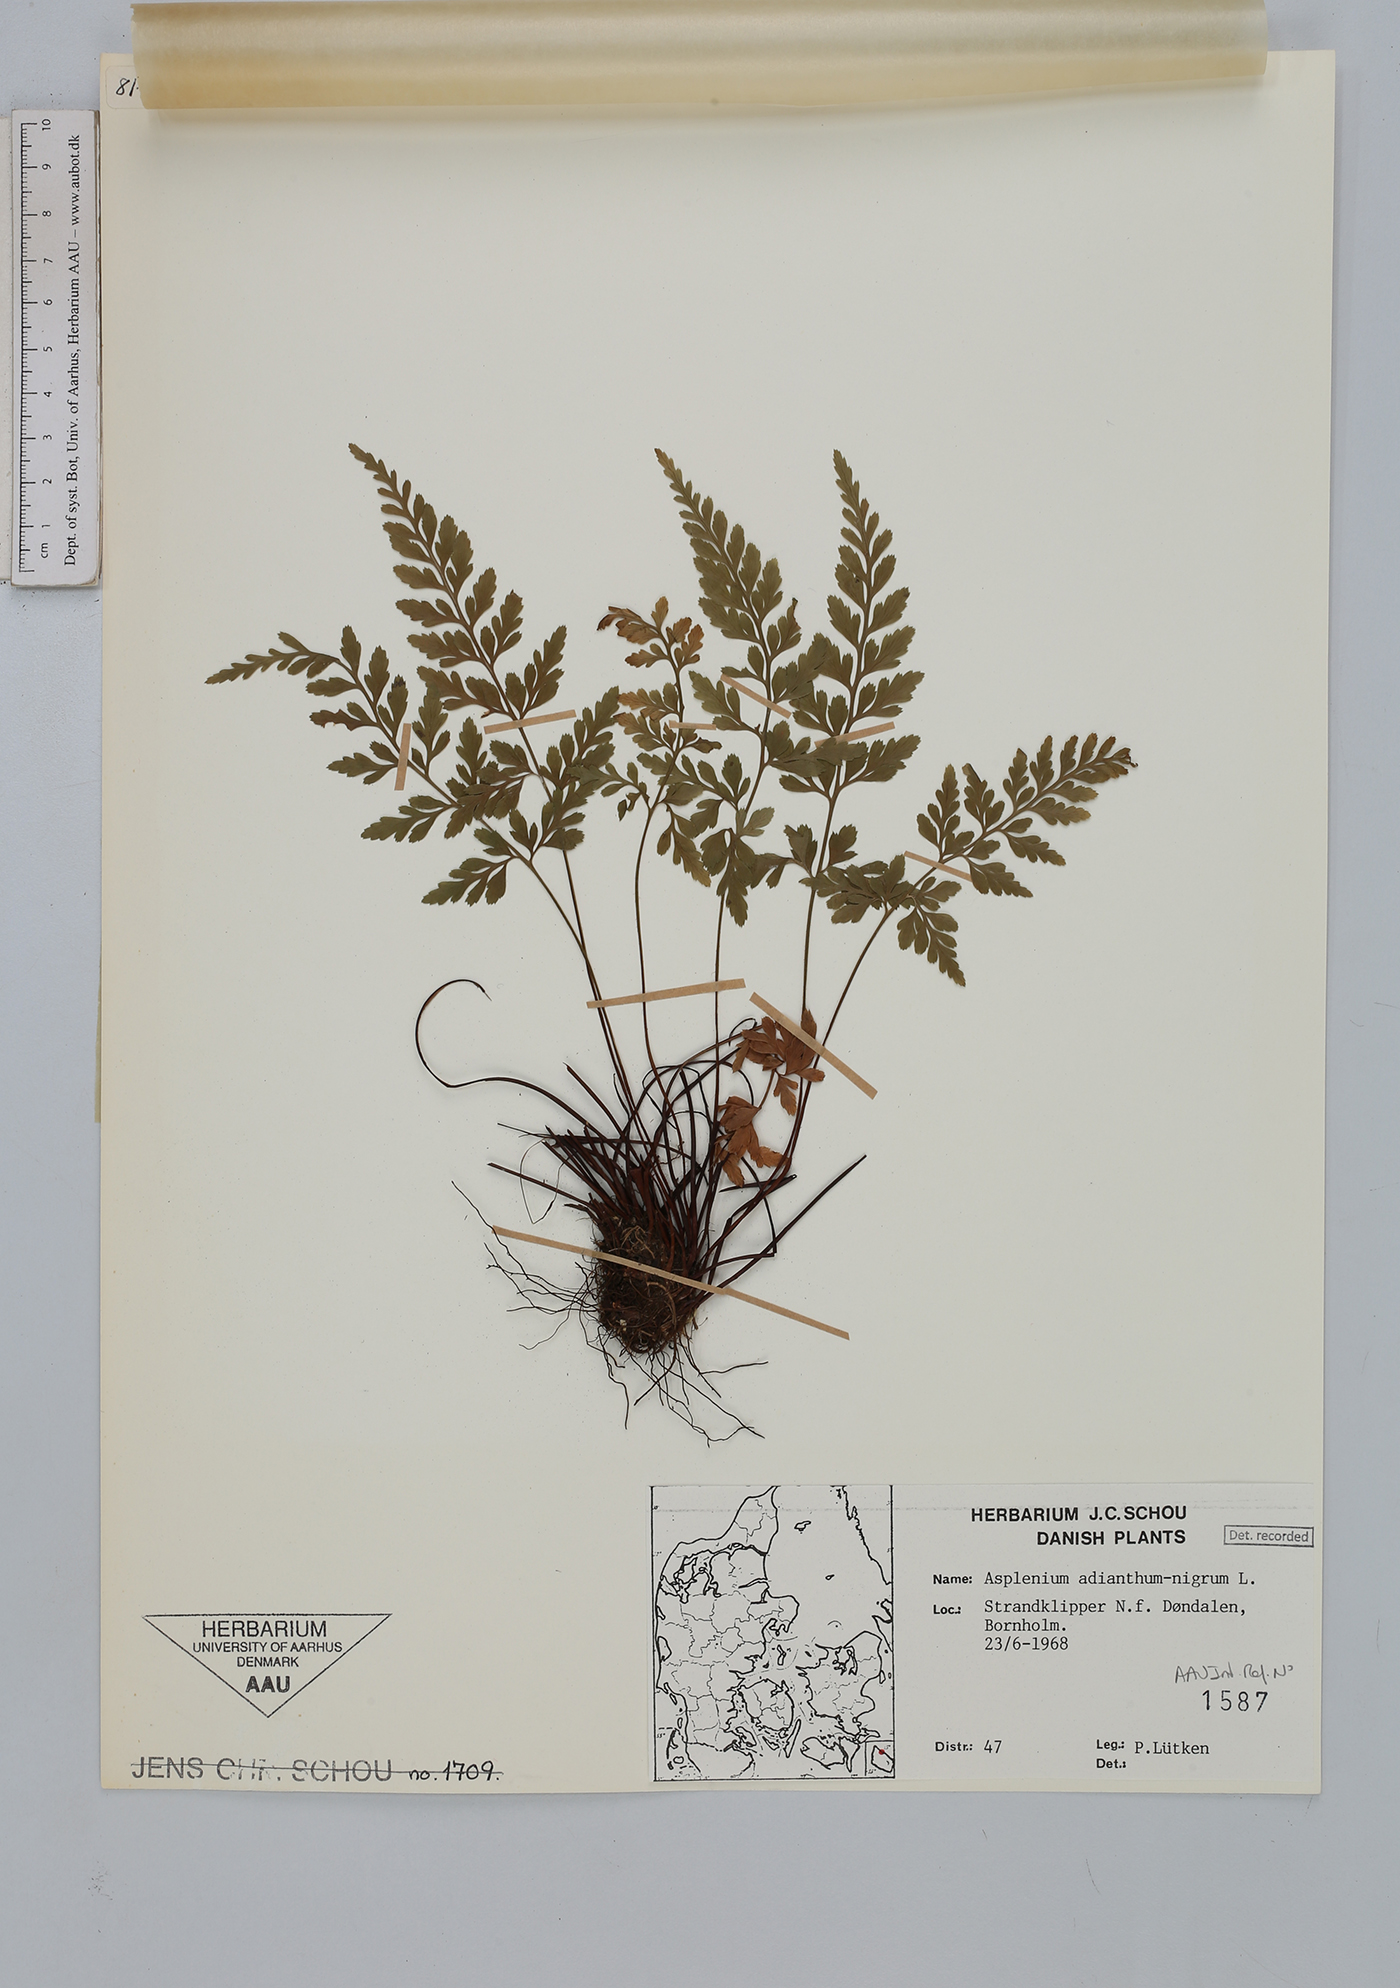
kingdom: Plantae
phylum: Tracheophyta
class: Polypodiopsida
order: Polypodiales
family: Aspleniaceae
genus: Asplenium
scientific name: Asplenium adiantum-nigrum
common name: Black spleenwort
